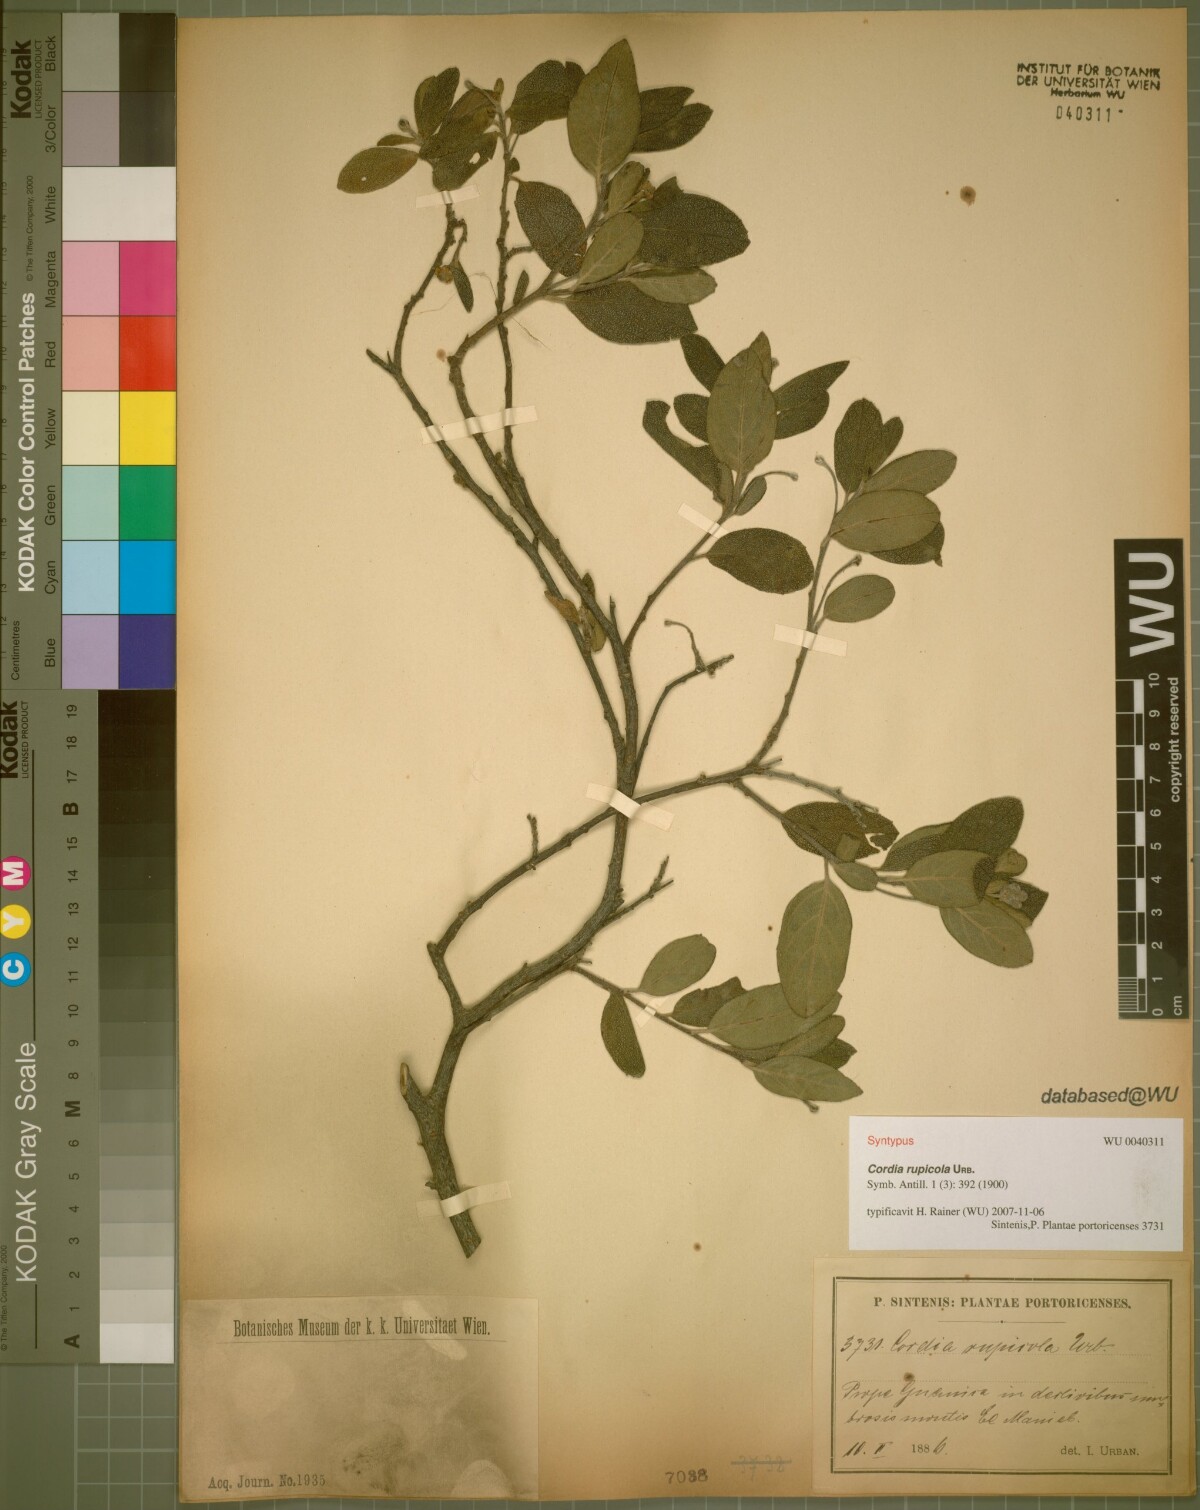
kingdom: Plantae
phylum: Tracheophyta
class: Magnoliopsida
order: Boraginales
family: Cordiaceae
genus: Varronia
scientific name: Varronia rupicola
